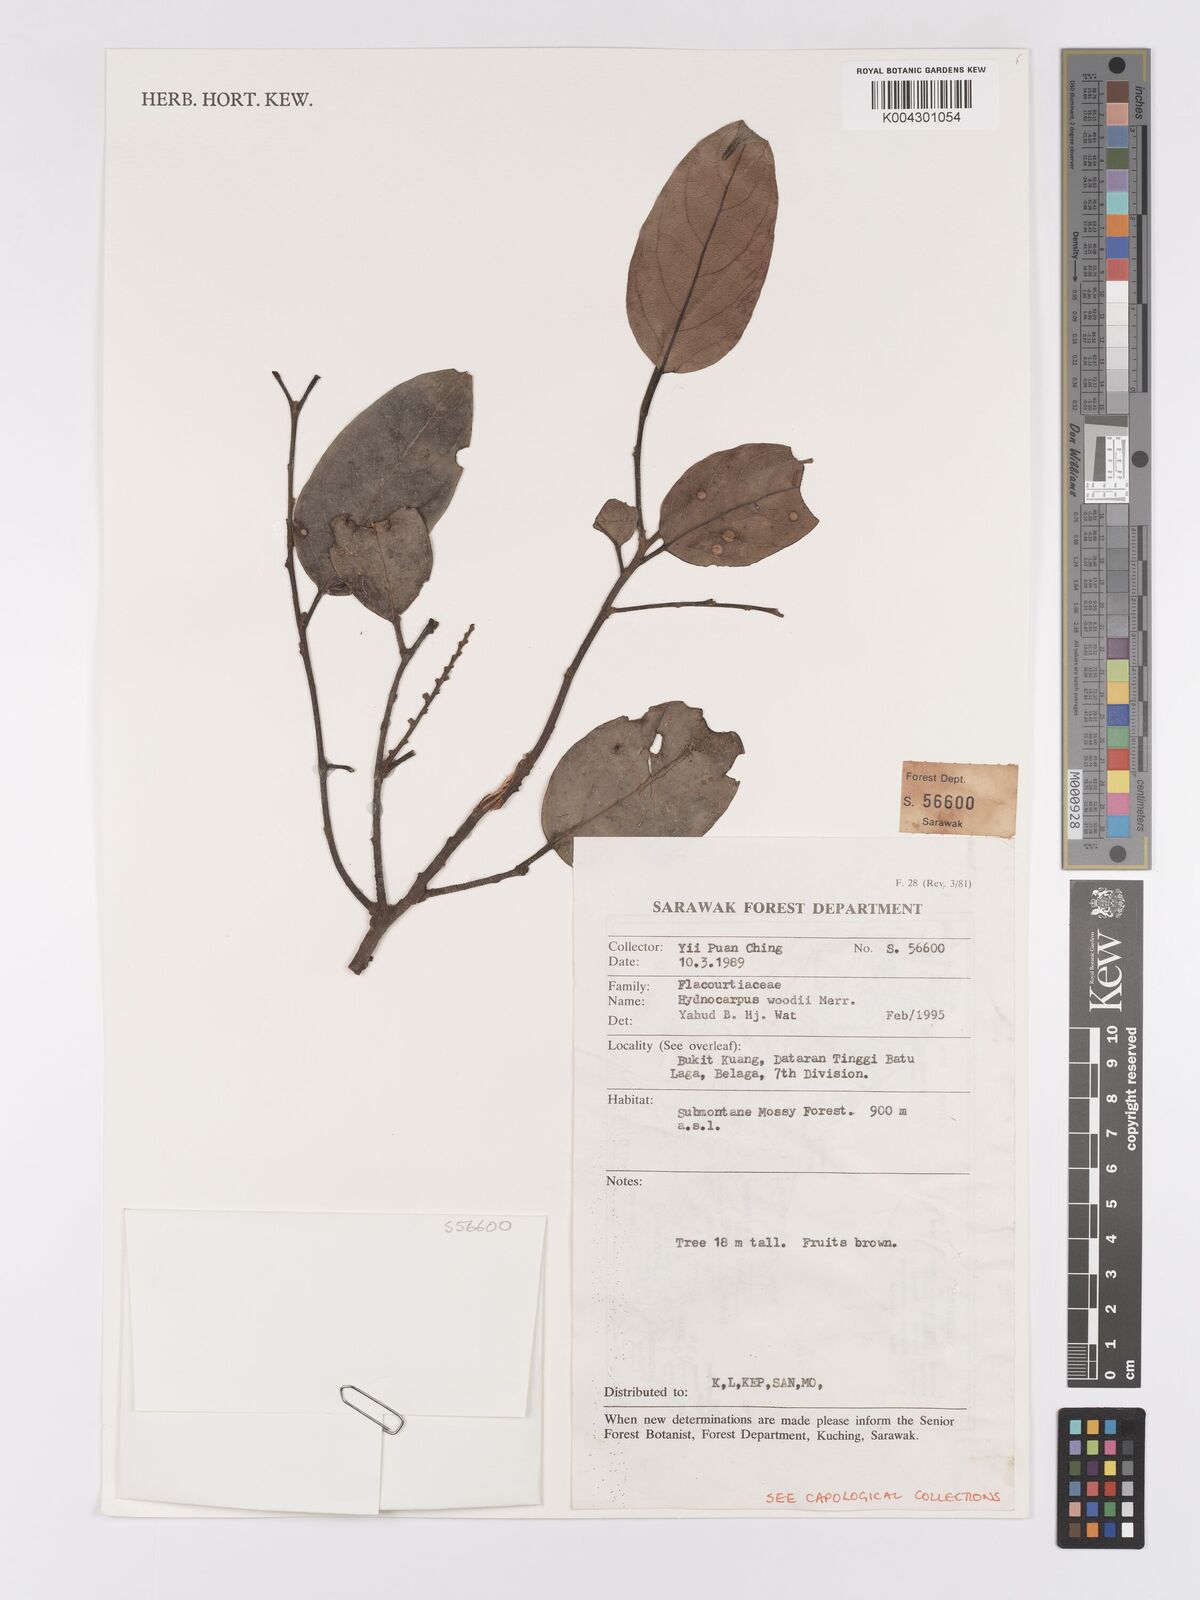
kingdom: Plantae
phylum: Tracheophyta
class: Magnoliopsida
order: Malpighiales
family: Achariaceae
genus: Hydnocarpus
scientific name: Hydnocarpus woodii
